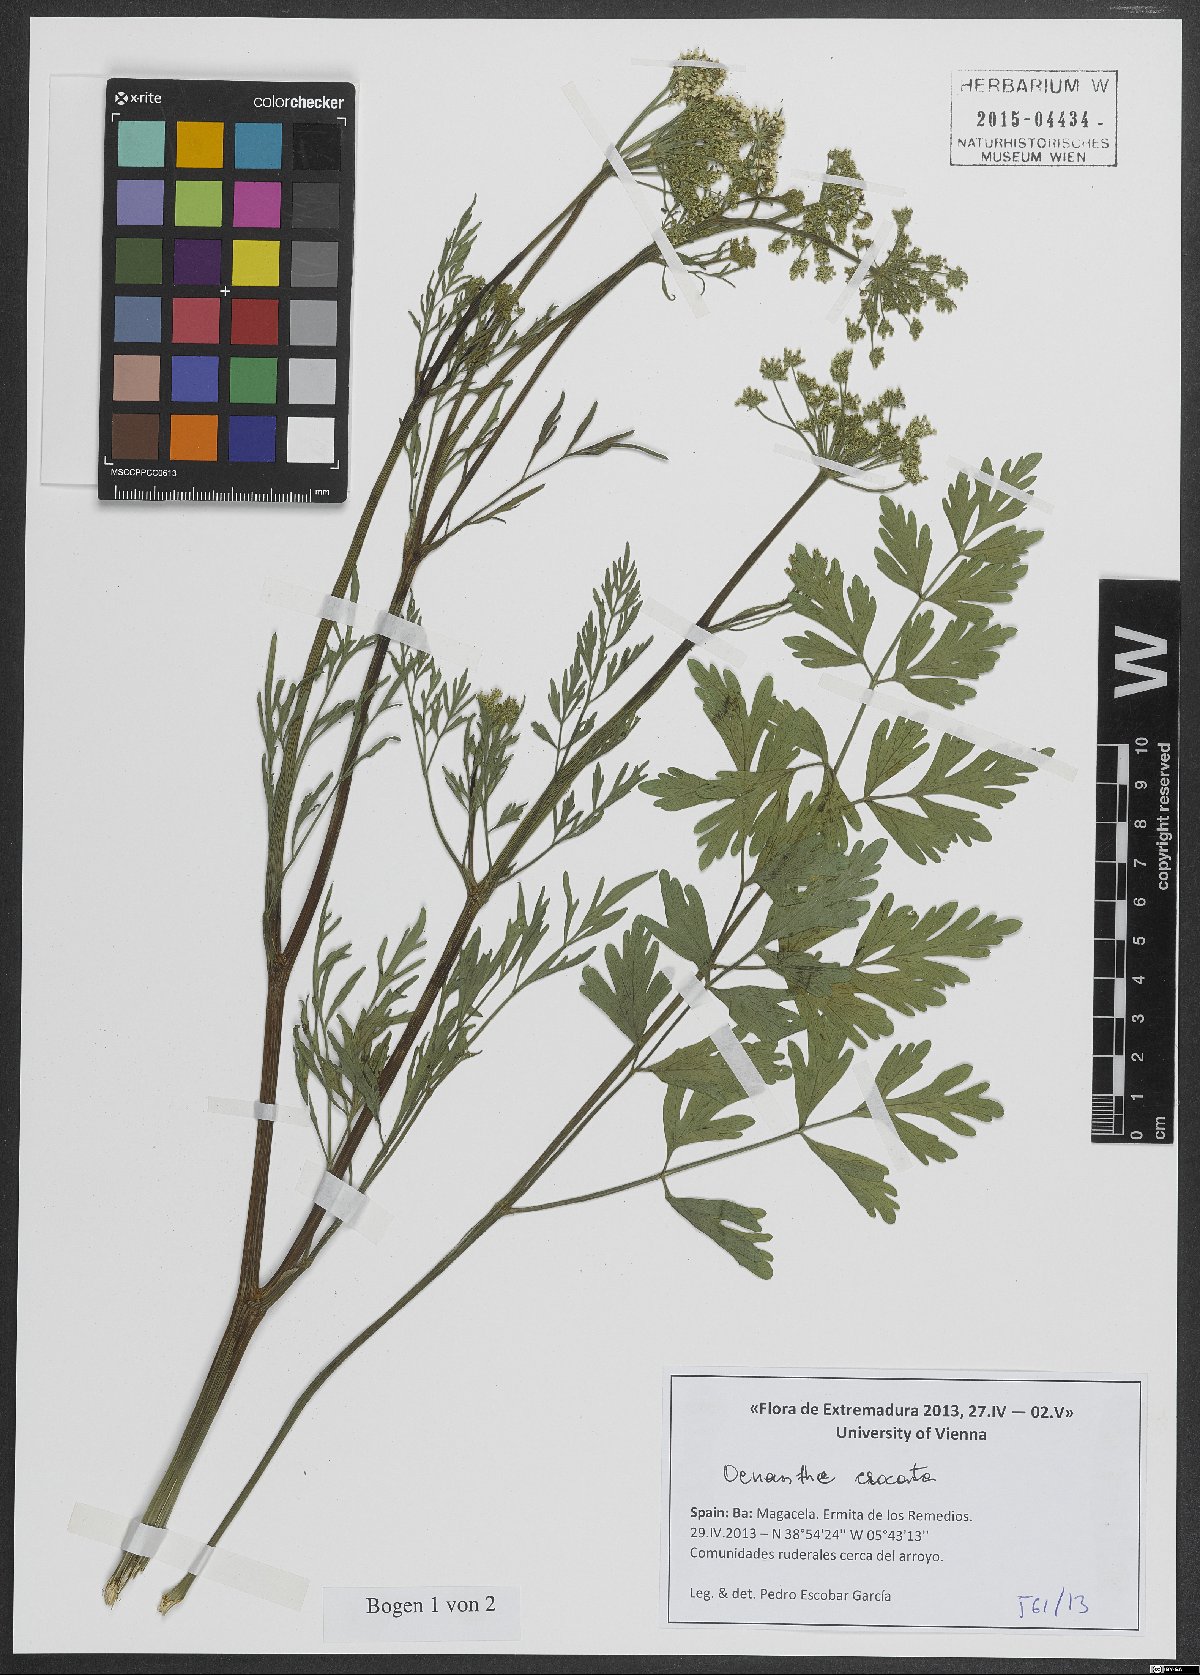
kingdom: Plantae
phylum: Tracheophyta
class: Magnoliopsida
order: Apiales
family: Apiaceae
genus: Oenanthe
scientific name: Oenanthe crocata
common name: Hemlock water-dropwort
